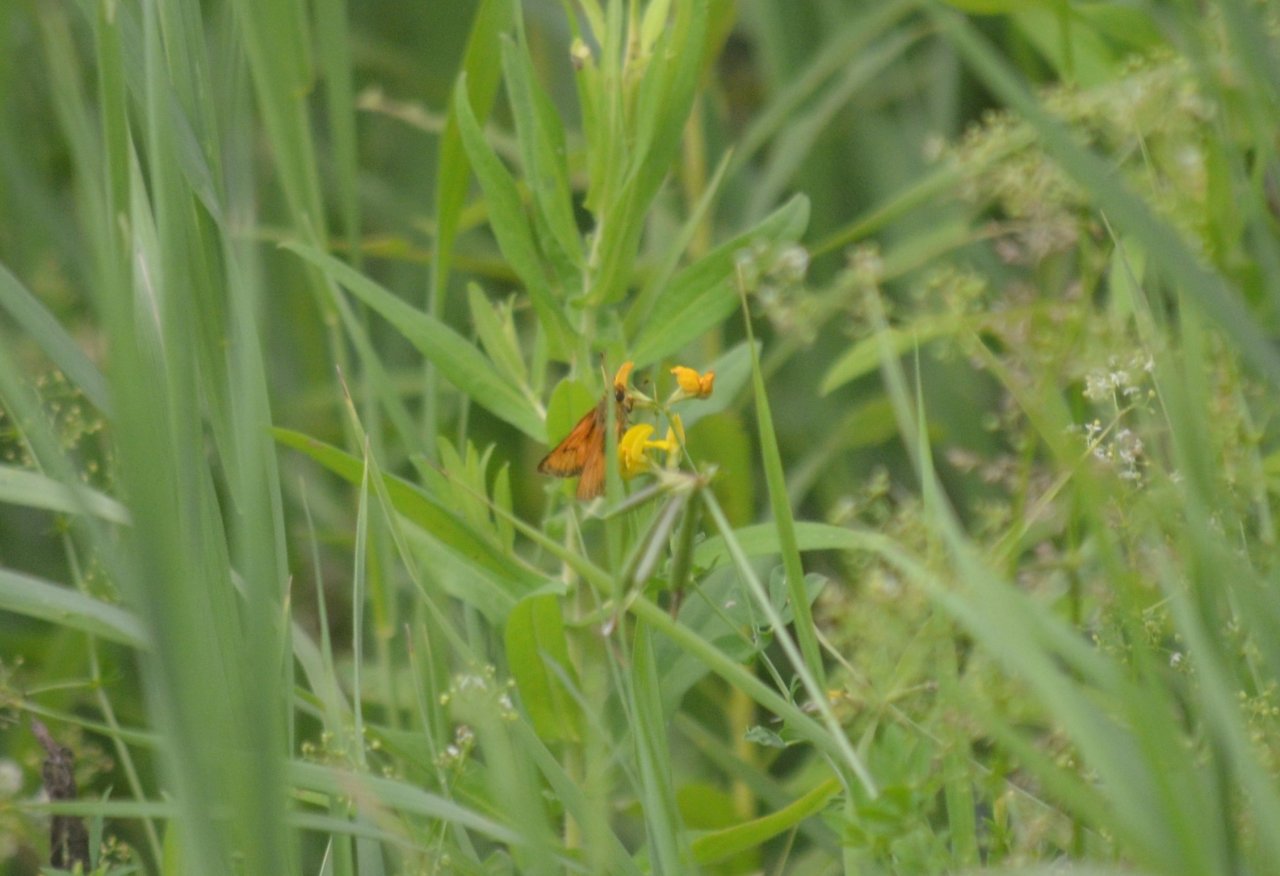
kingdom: Animalia
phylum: Arthropoda
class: Insecta
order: Lepidoptera
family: Hesperiidae
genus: Atrytone
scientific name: Atrytone delaware
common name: Delaware Skipper
